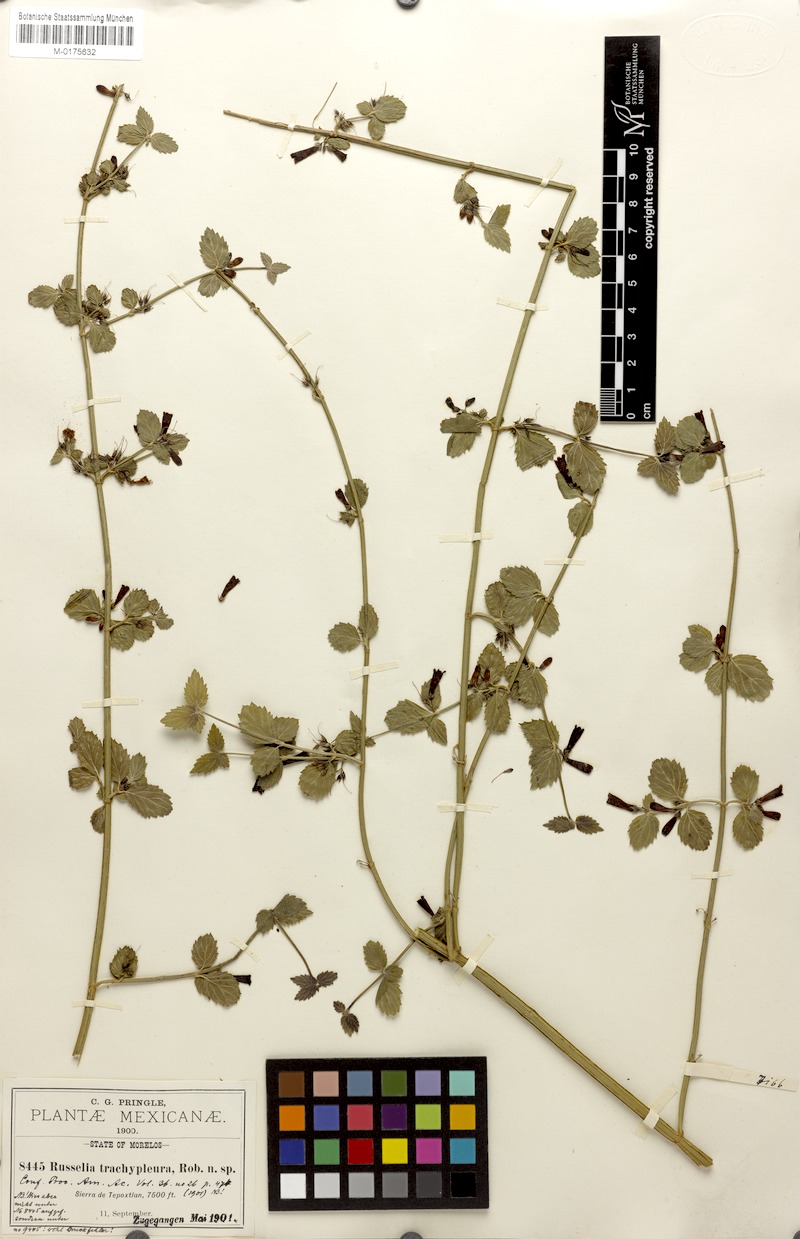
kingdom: Plantae
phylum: Tracheophyta
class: Magnoliopsida
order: Lamiales
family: Plantaginaceae
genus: Russelia
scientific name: Russelia retrorsa
